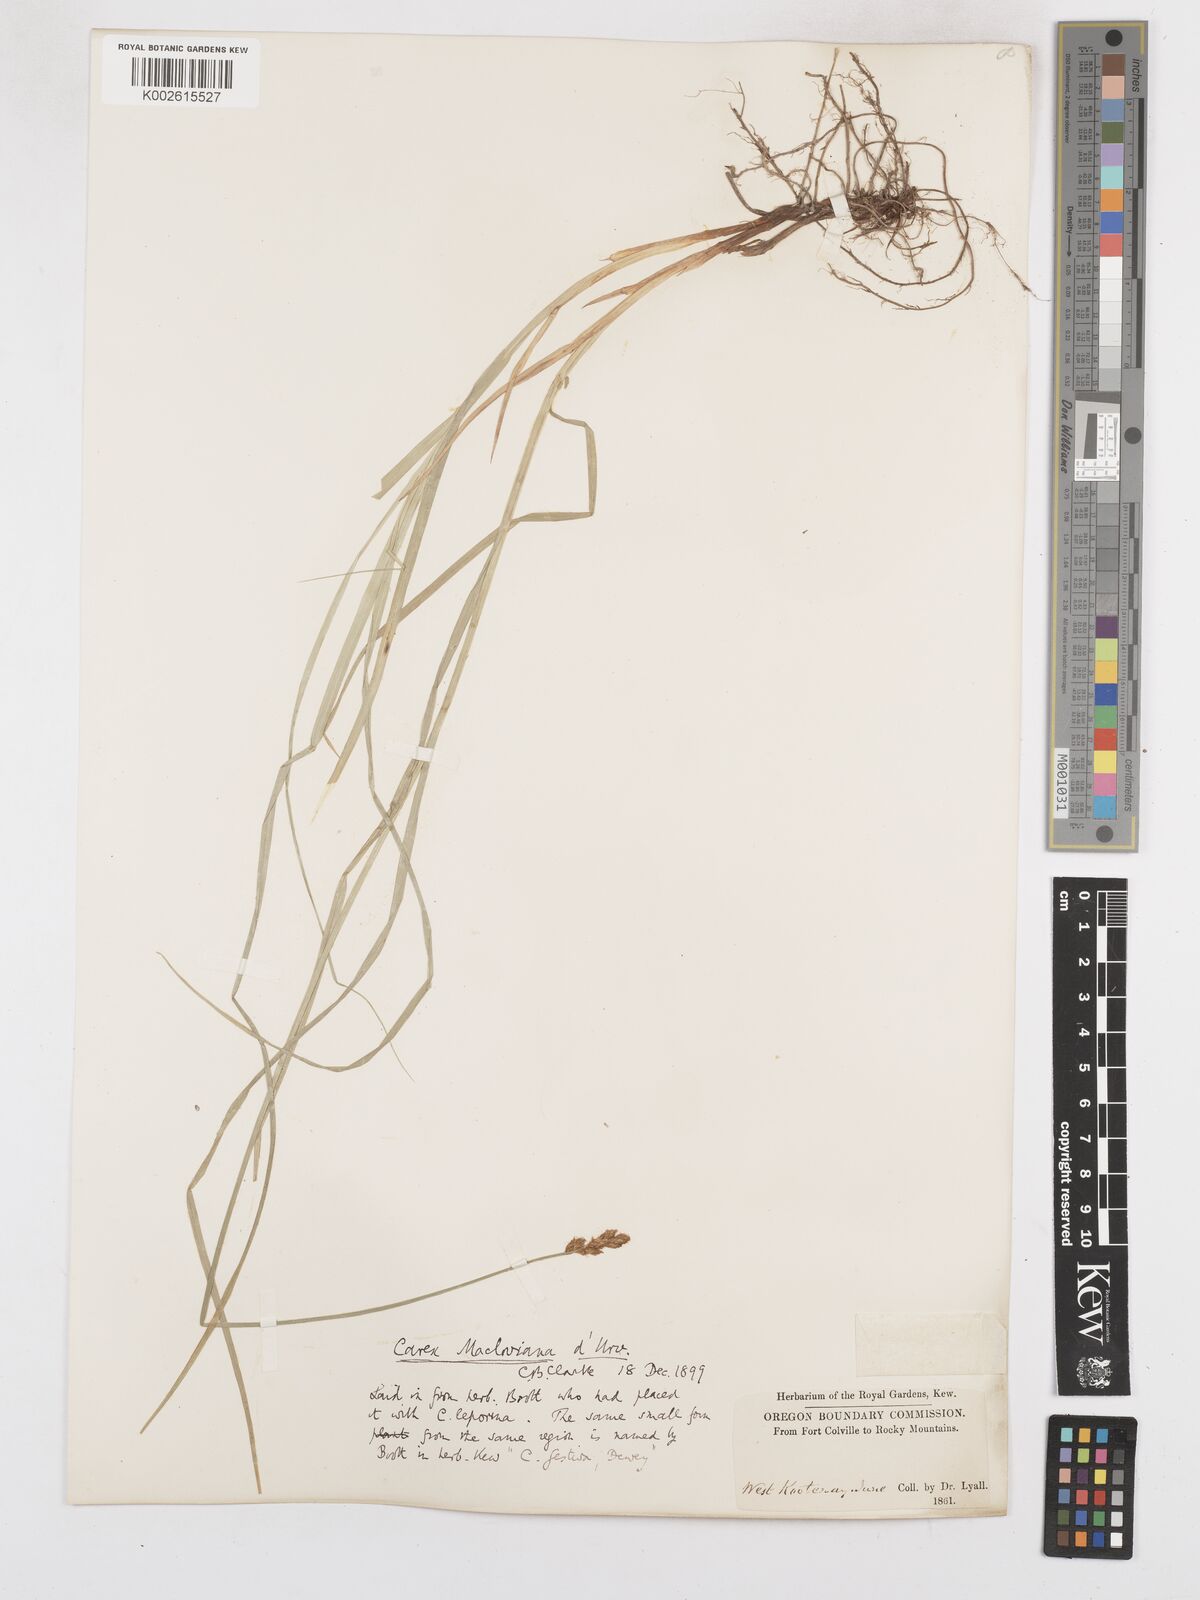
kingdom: Plantae
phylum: Tracheophyta
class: Liliopsida
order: Poales
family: Cyperaceae
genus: Carex
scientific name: Carex macloviana
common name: Falkland island sedge
